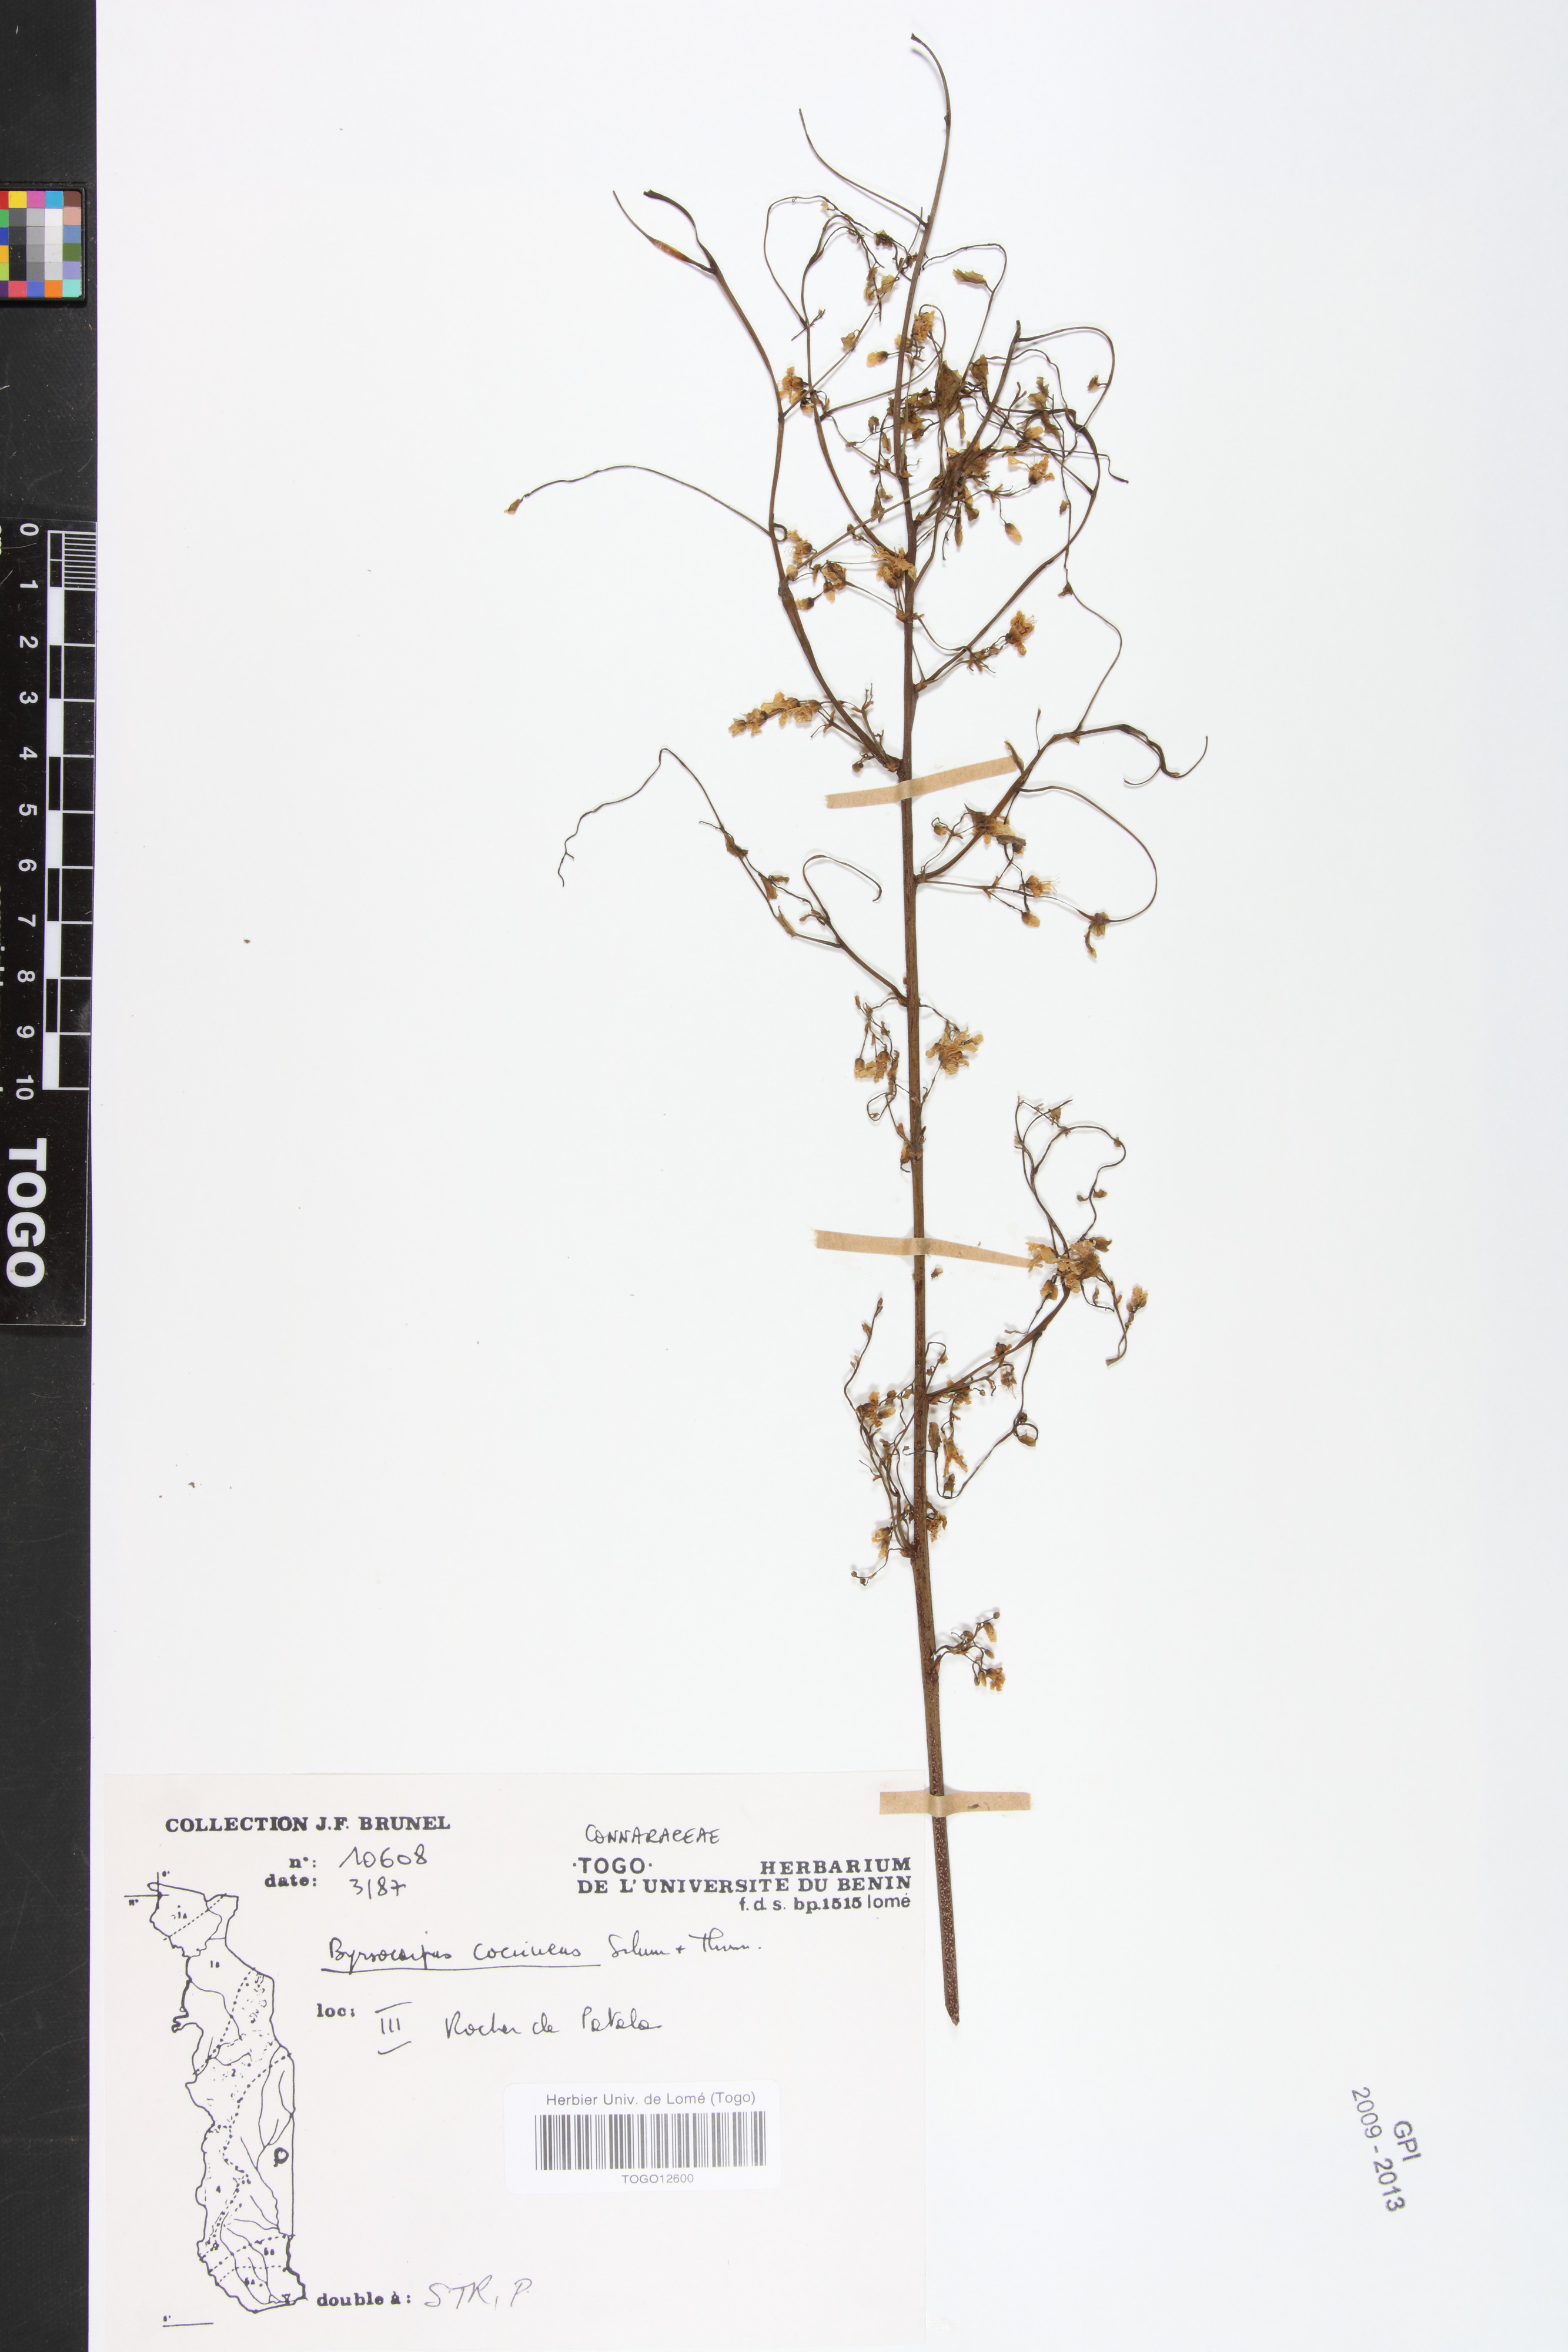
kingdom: Plantae
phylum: Tracheophyta
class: Magnoliopsida
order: Oxalidales
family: Connaraceae
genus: Rourea
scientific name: Rourea coccinea
